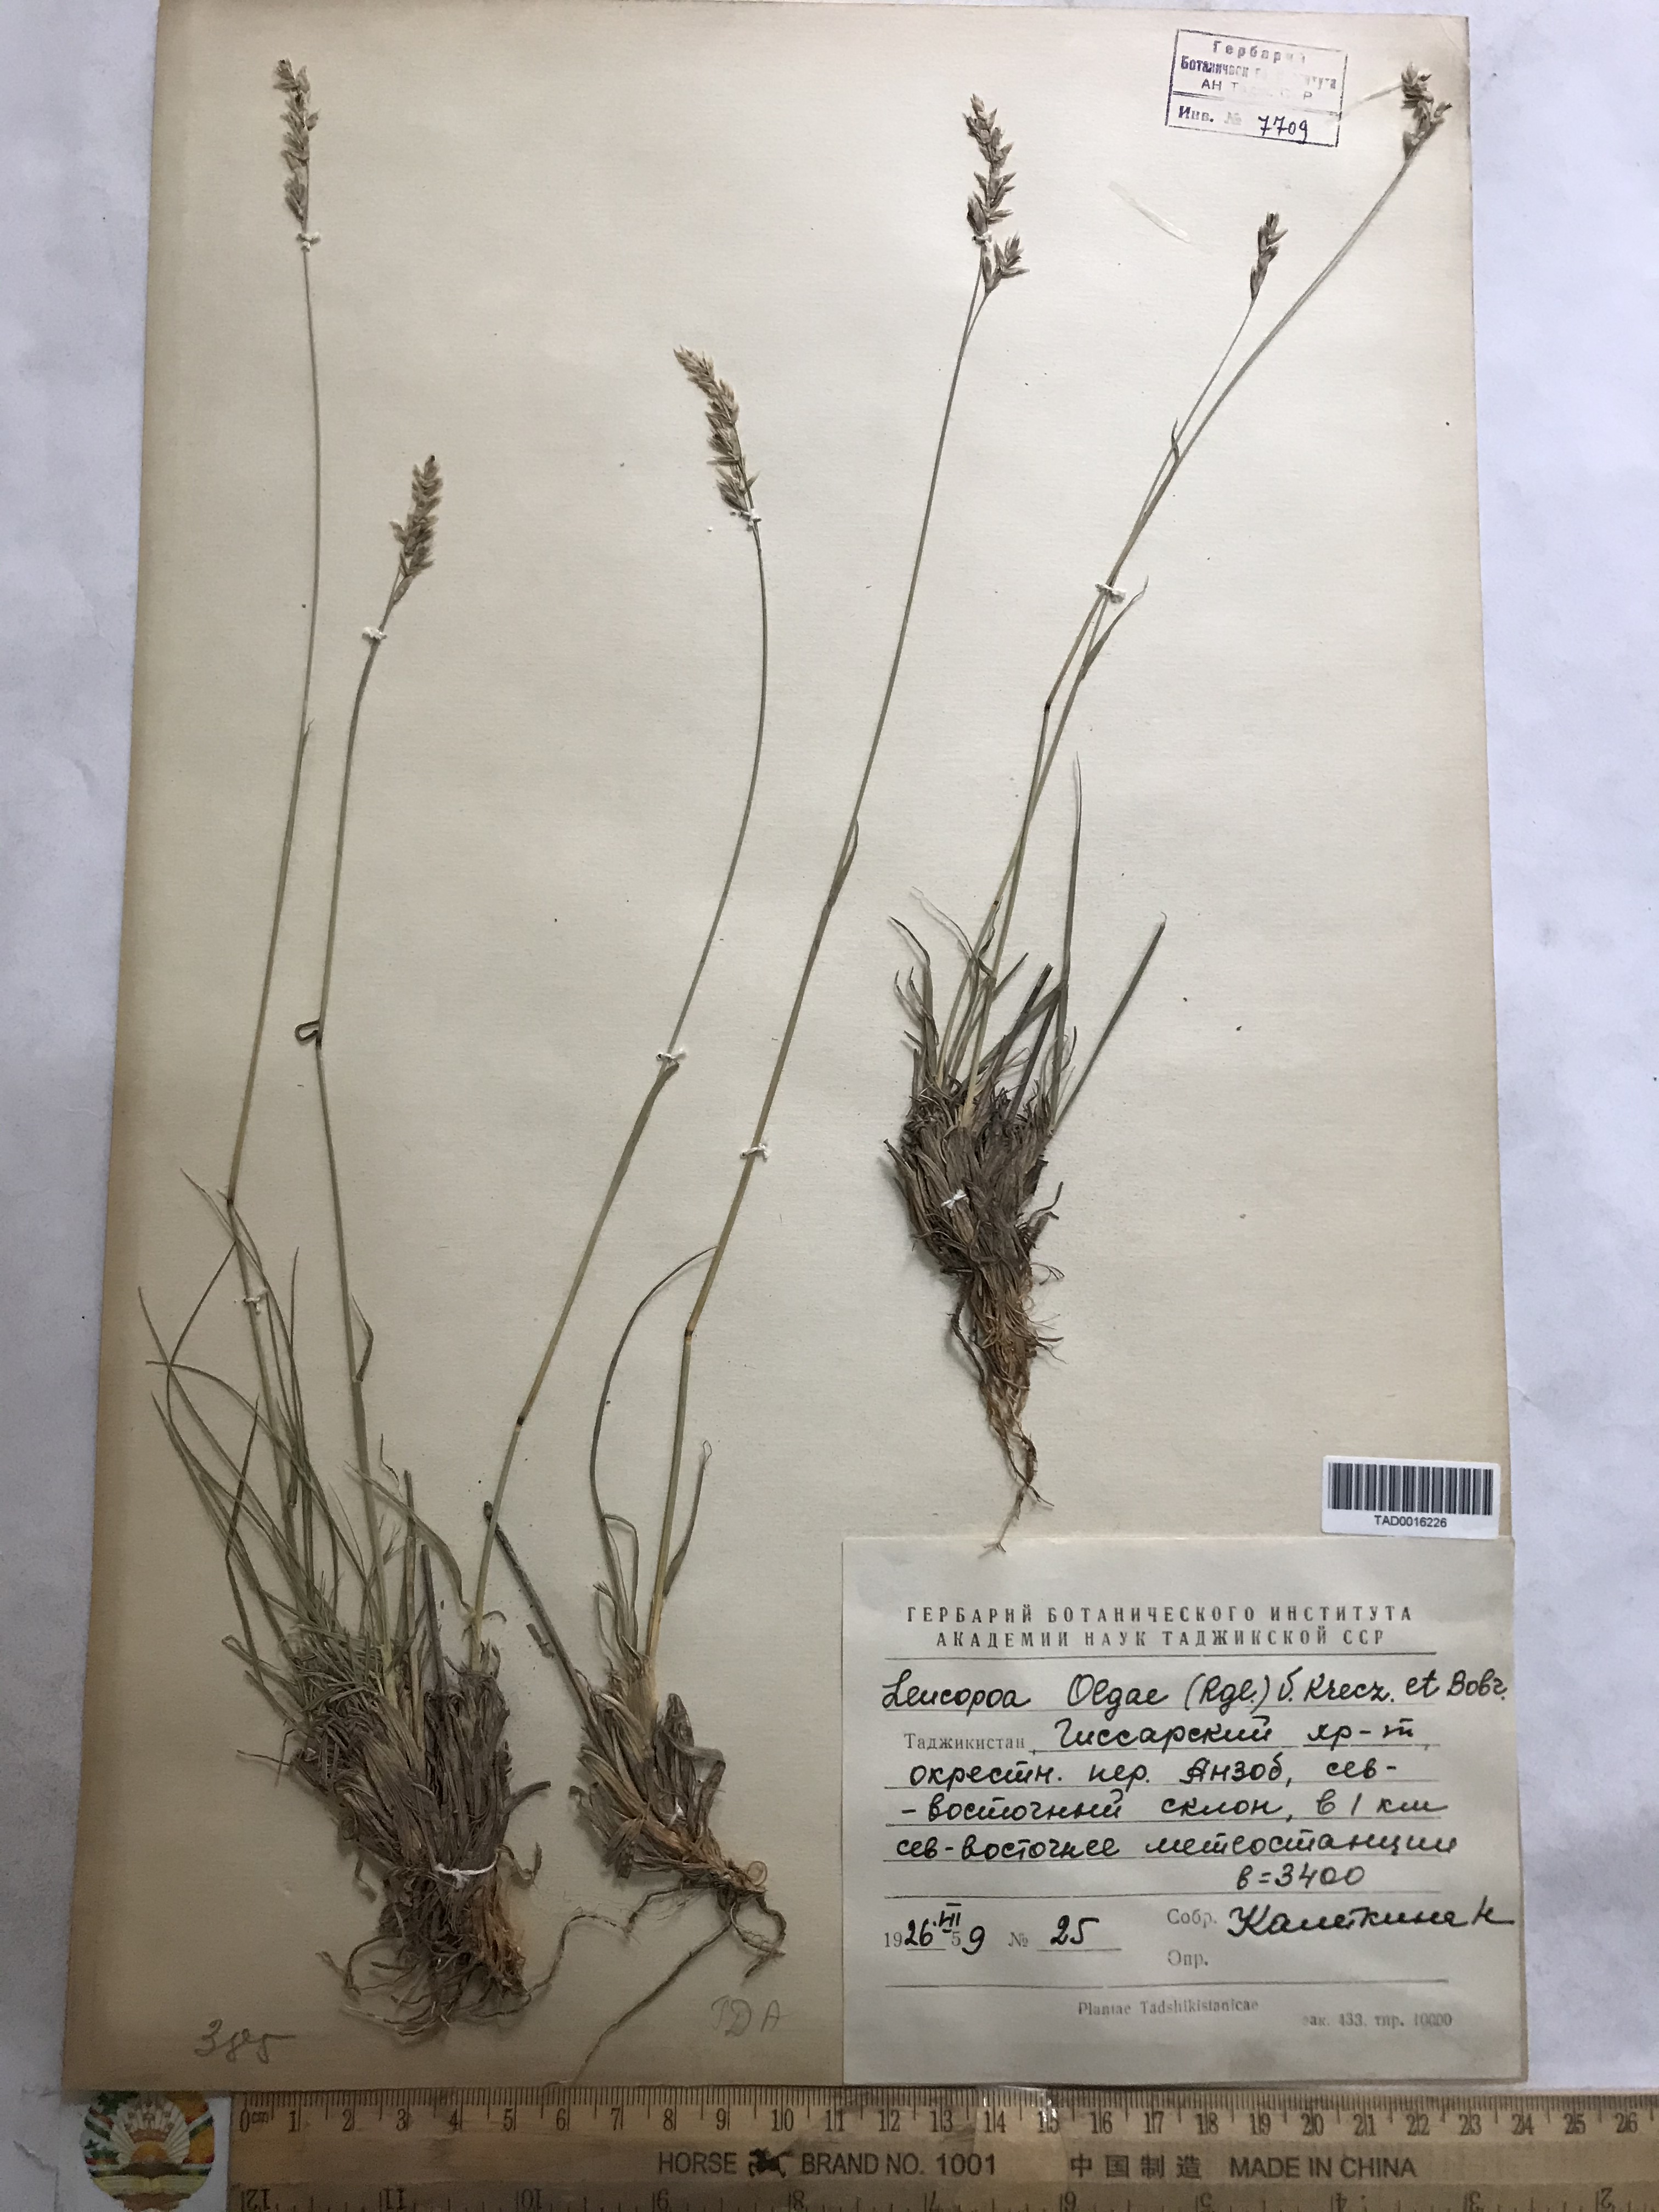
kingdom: Plantae
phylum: Tracheophyta
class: Liliopsida
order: Poales
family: Poaceae
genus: Festuca
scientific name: Festuca
